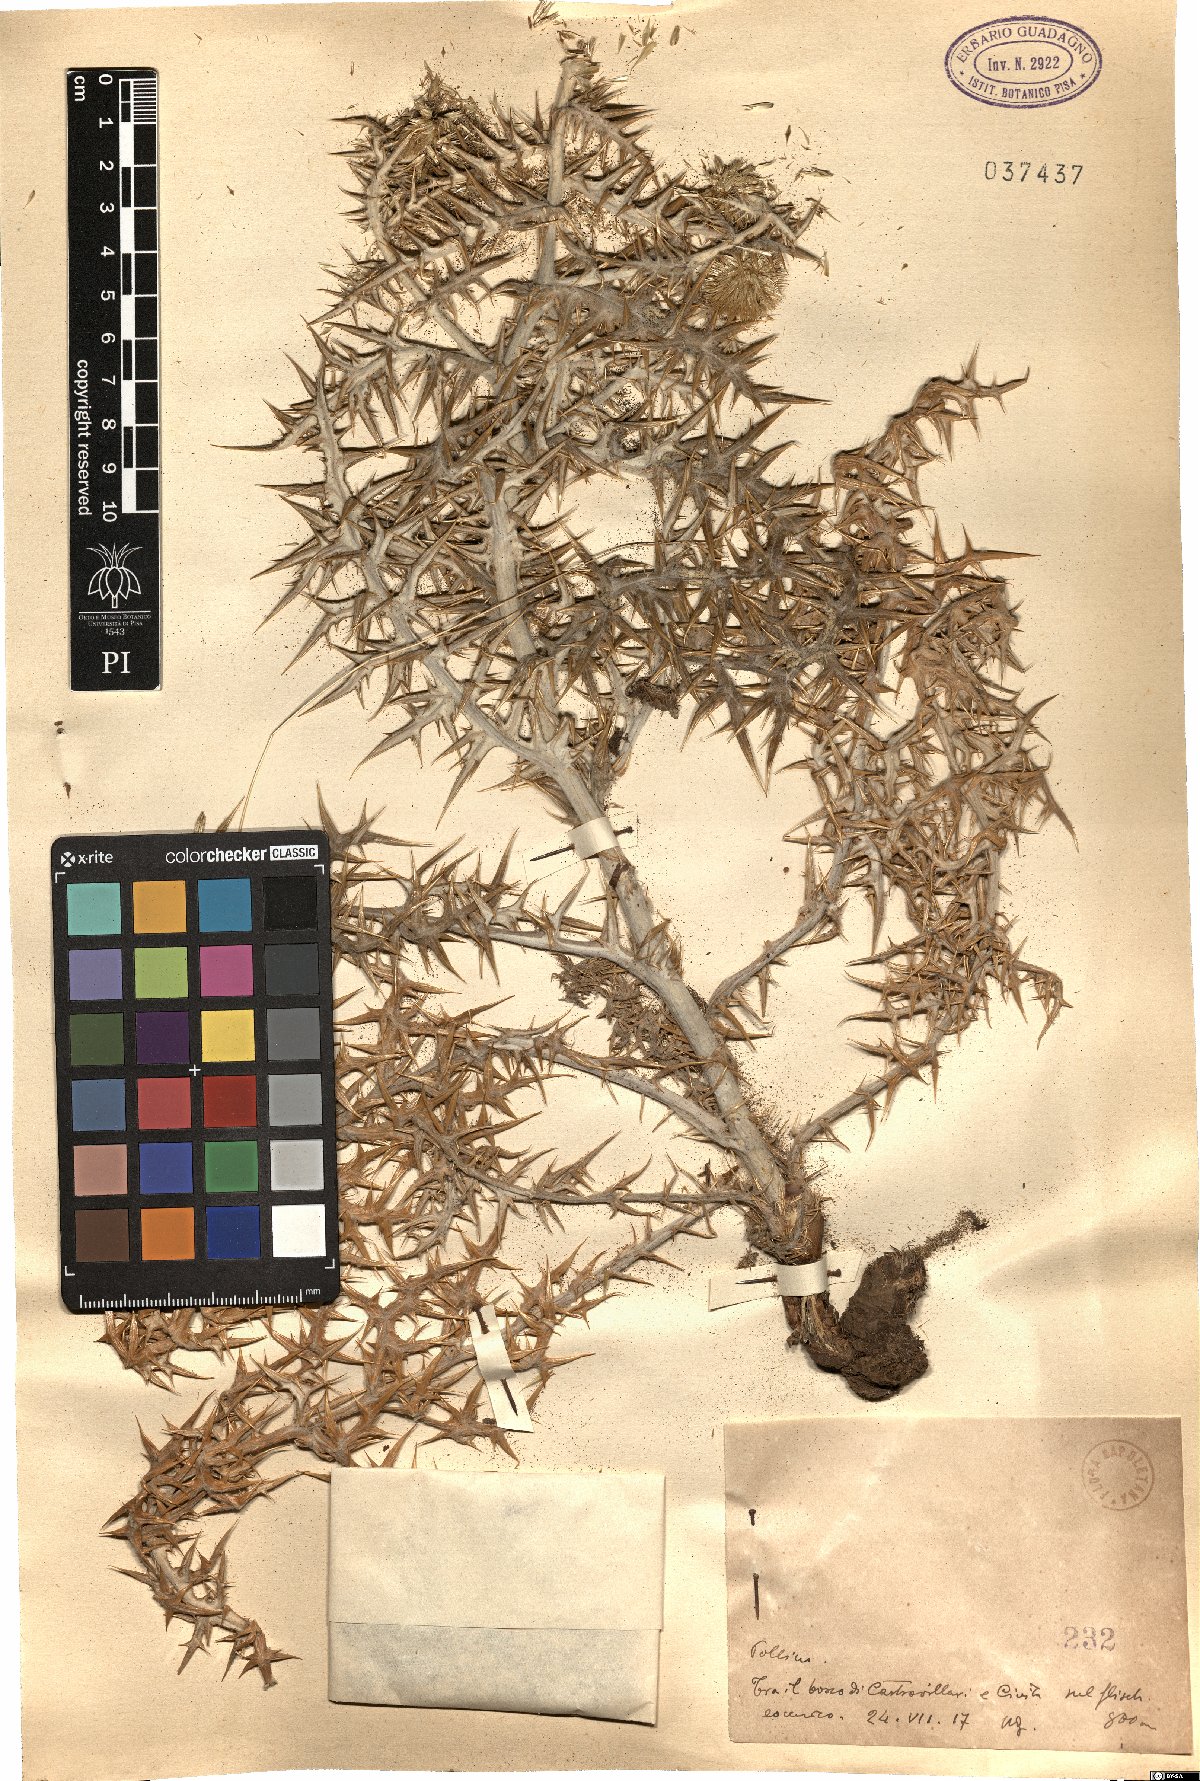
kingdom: Plantae
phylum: Tracheophyta
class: Magnoliopsida
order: Asterales
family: Asteraceae
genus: Echinops
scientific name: Echinops
